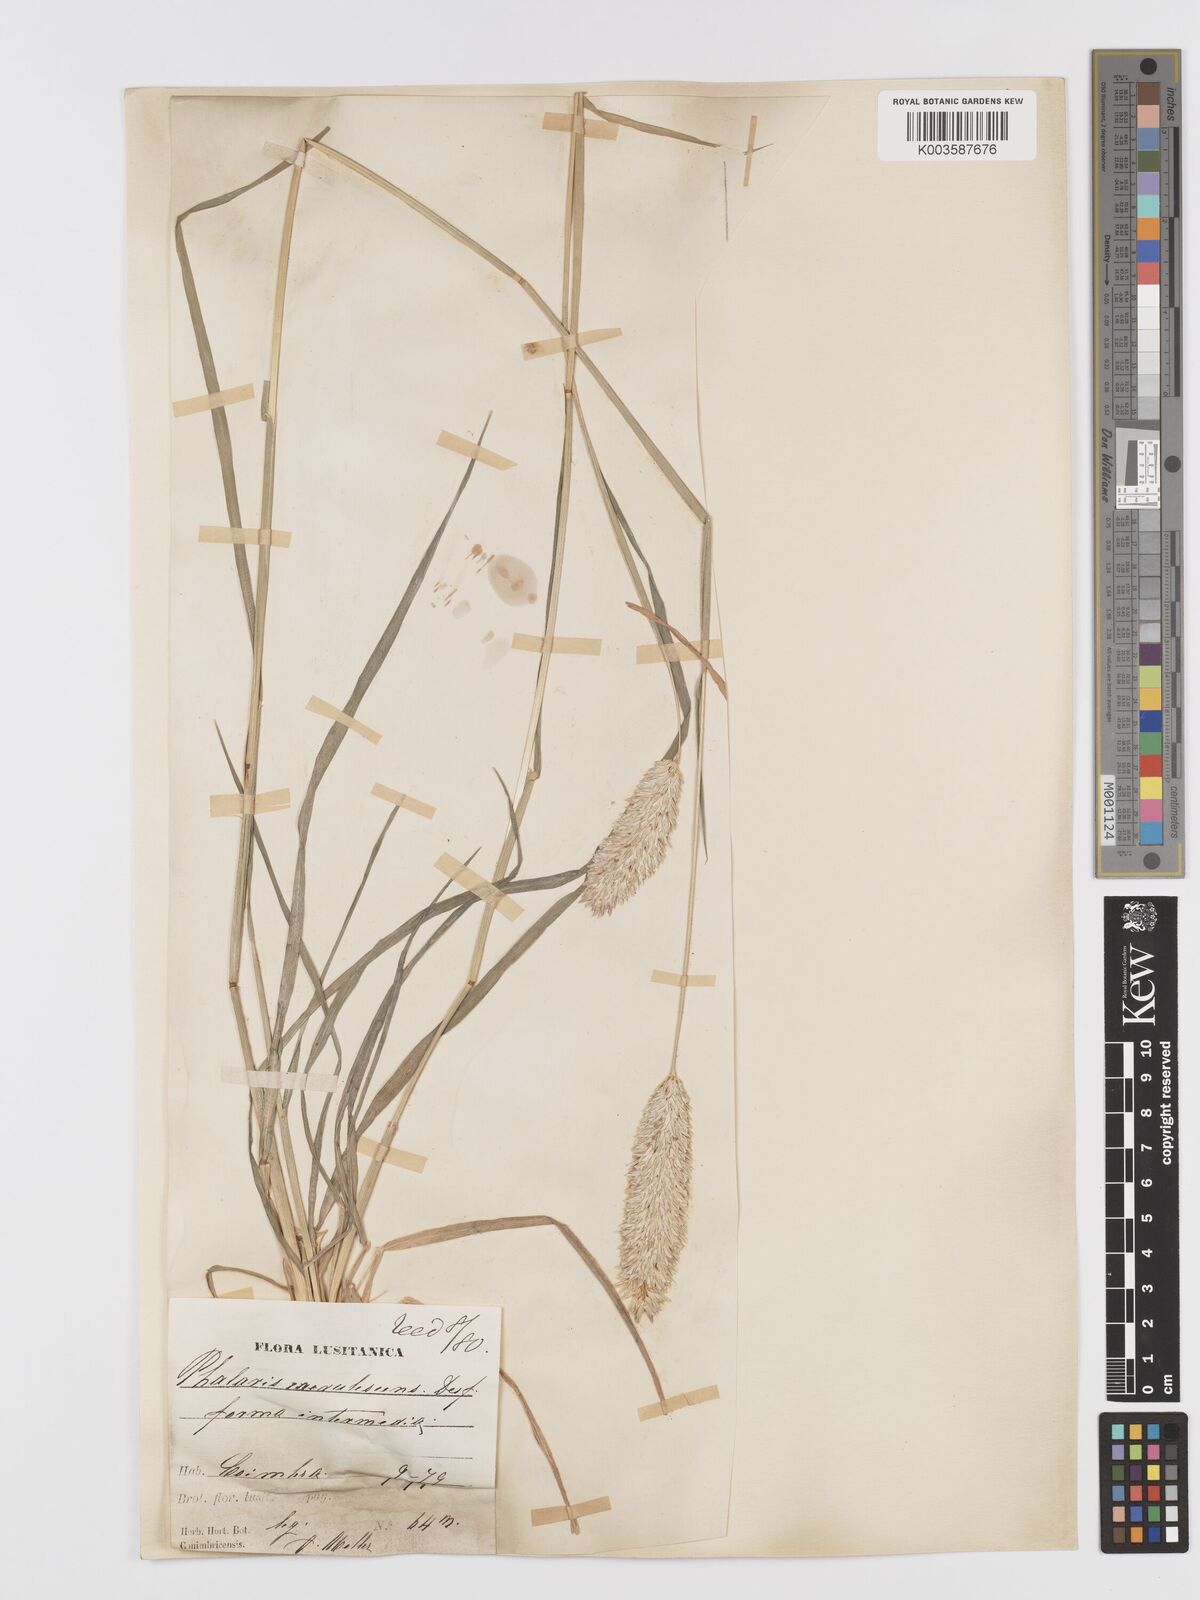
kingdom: Plantae
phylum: Tracheophyta
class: Liliopsida
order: Poales
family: Poaceae
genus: Phalaris
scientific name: Phalaris coerulescens
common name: Sunolgrass
